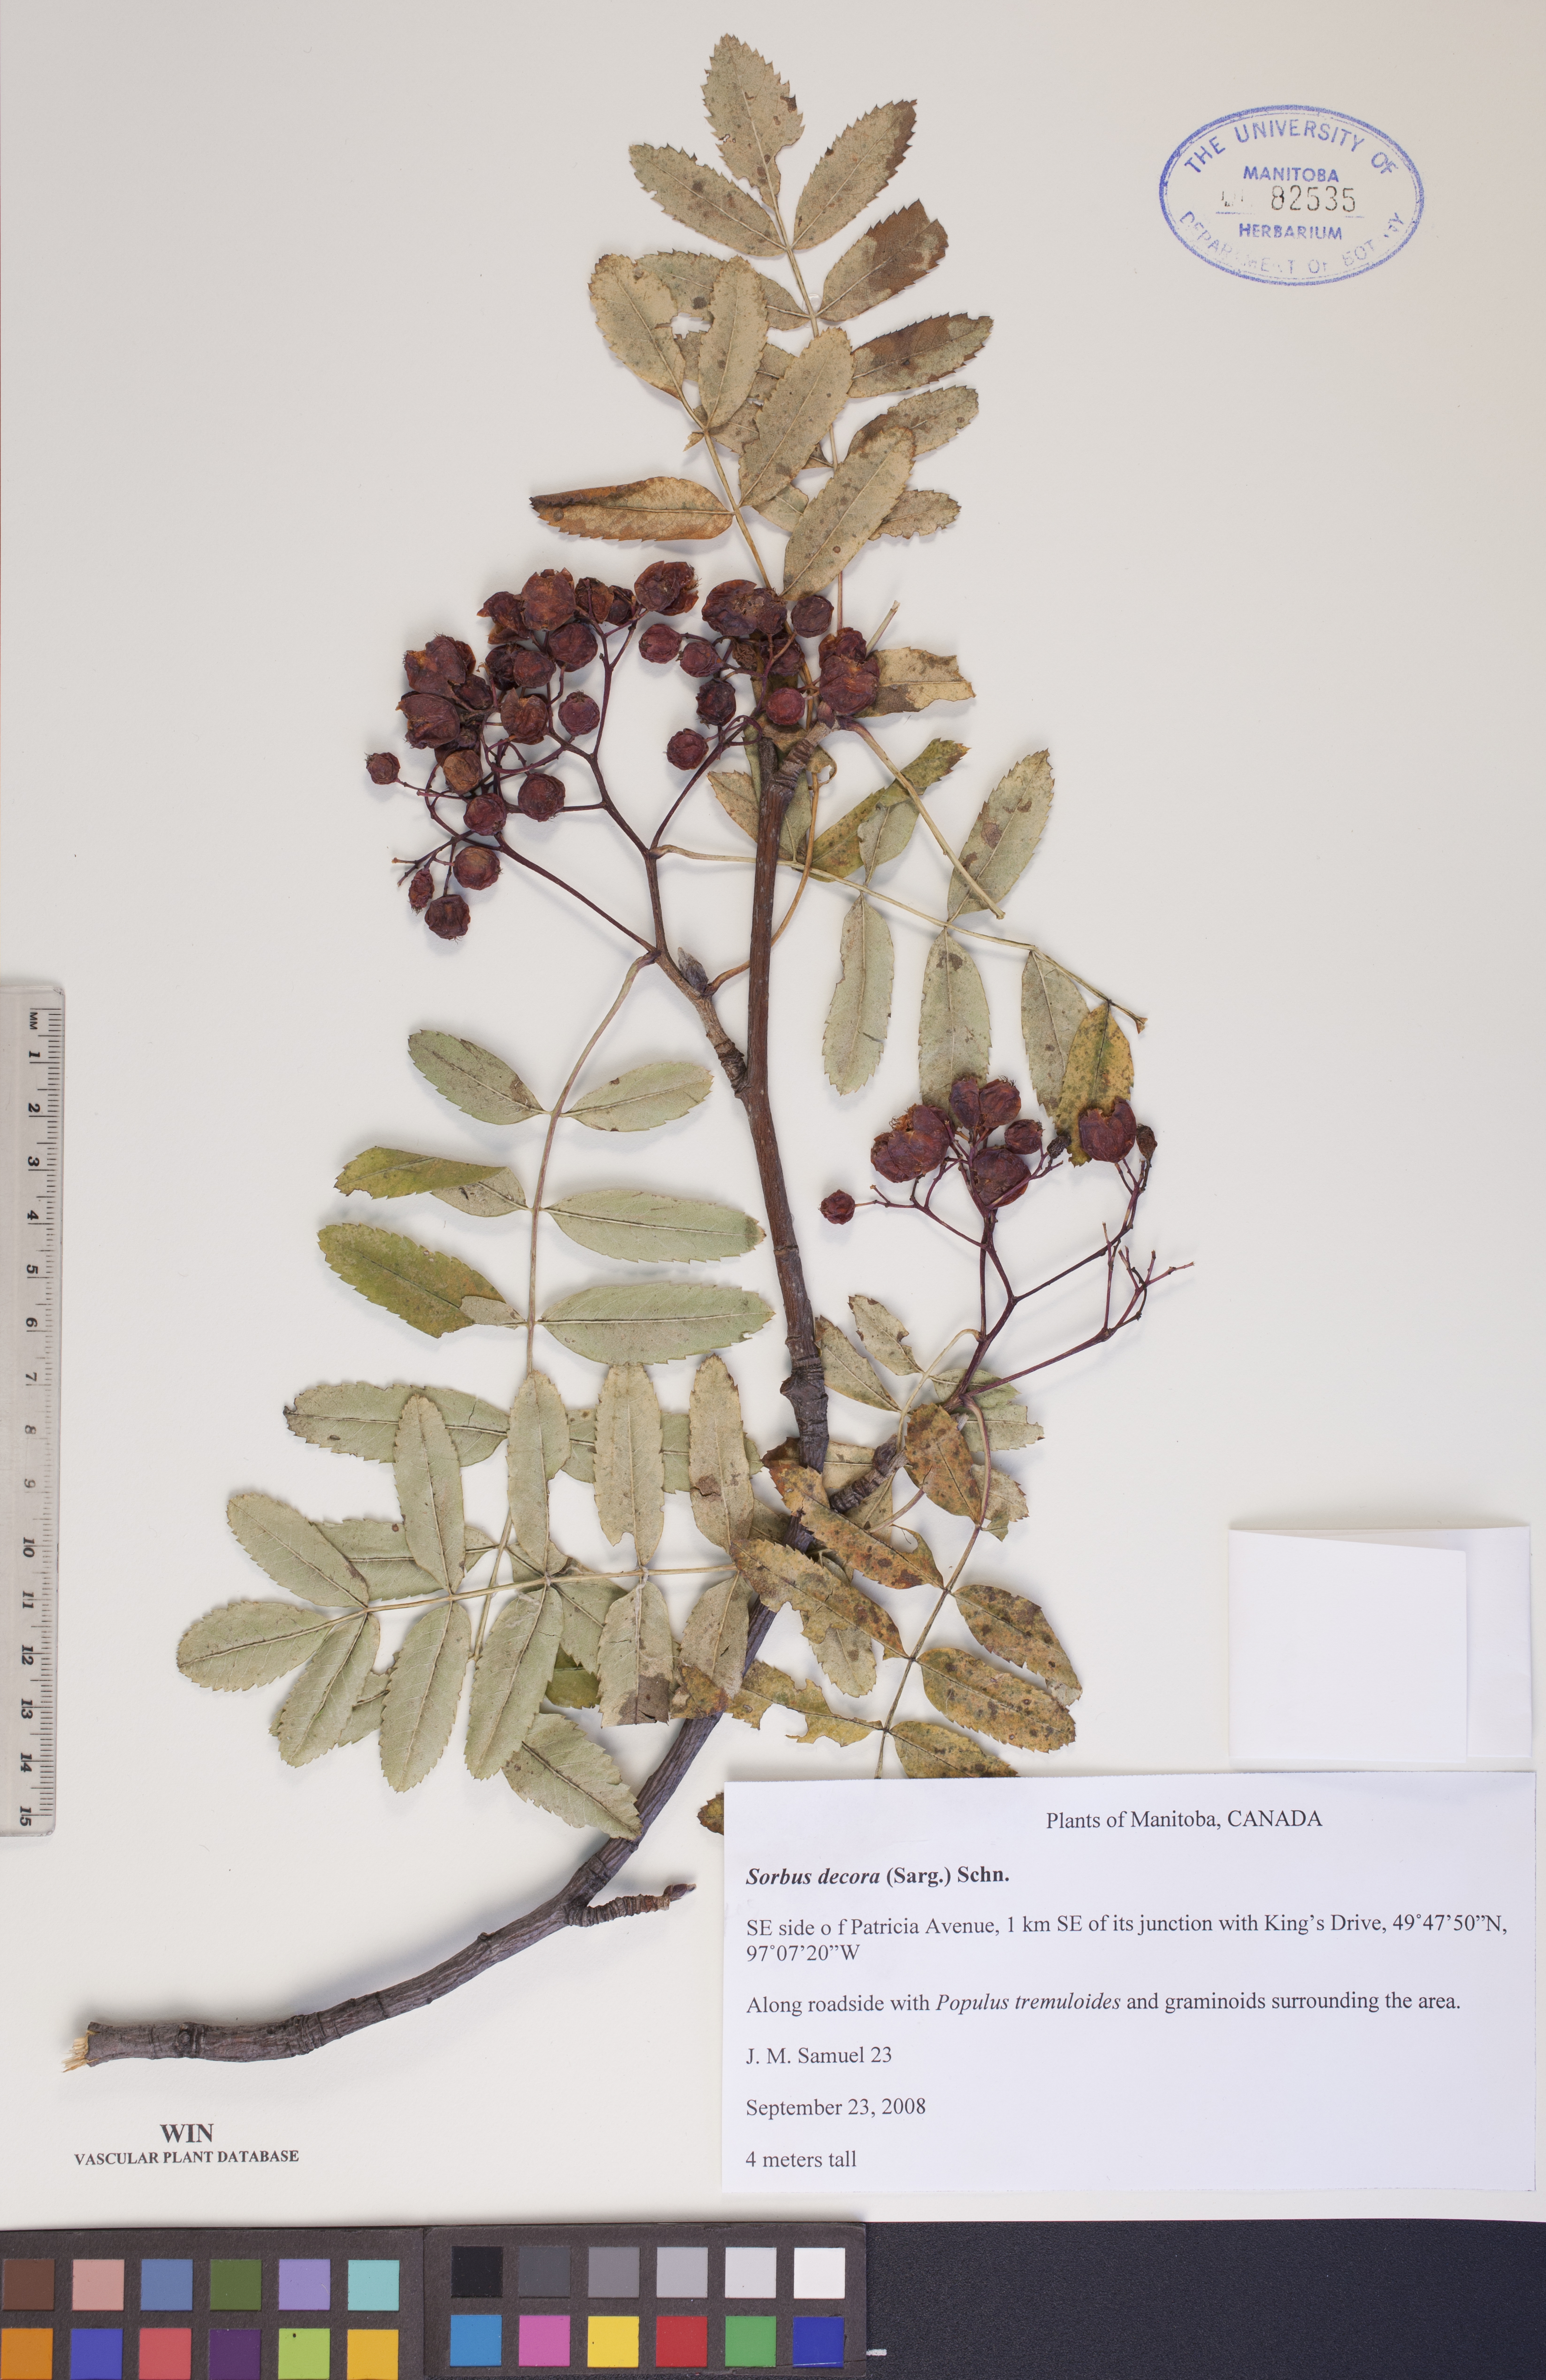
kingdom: Plantae
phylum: Tracheophyta
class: Magnoliopsida
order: Rosales
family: Rosaceae
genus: Sorbus
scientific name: Sorbus decora
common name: Northern mountain-ash
